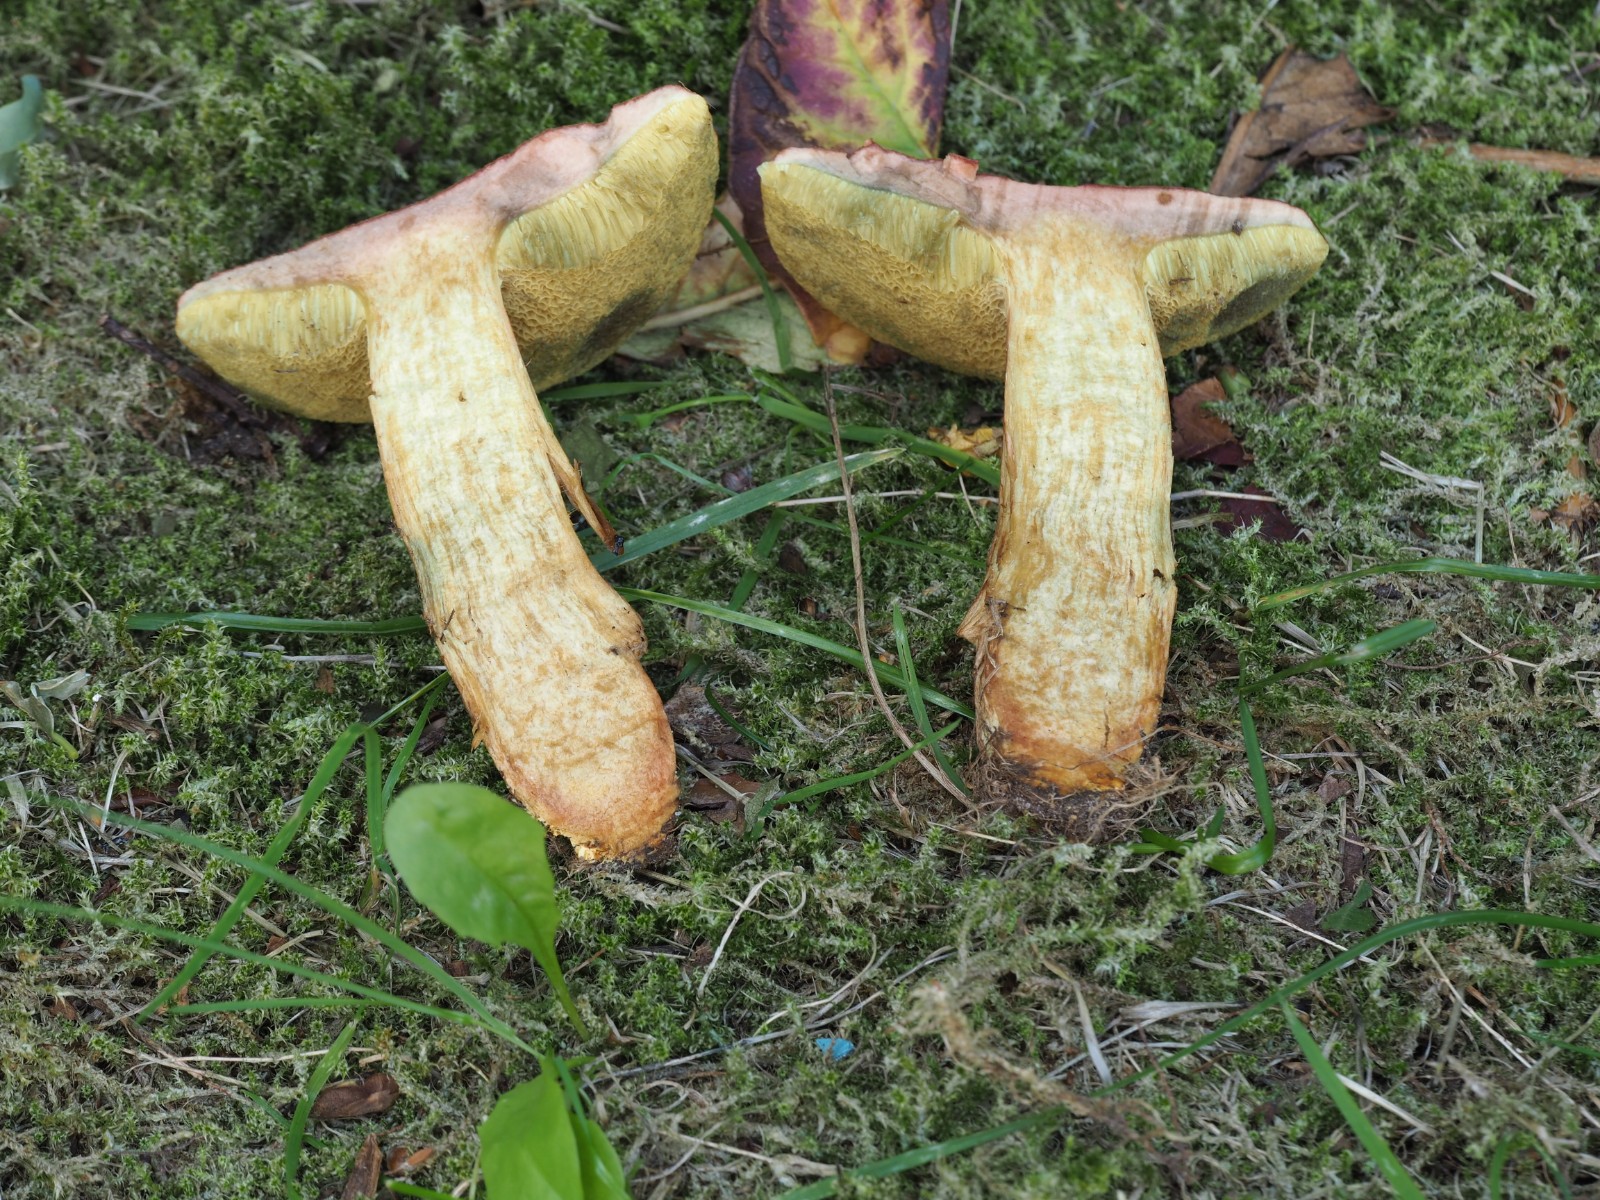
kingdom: Fungi
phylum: Basidiomycota
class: Agaricomycetes
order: Boletales
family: Boletaceae
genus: Hortiboletus
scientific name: Hortiboletus bubalinus
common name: aurora-rørhat
